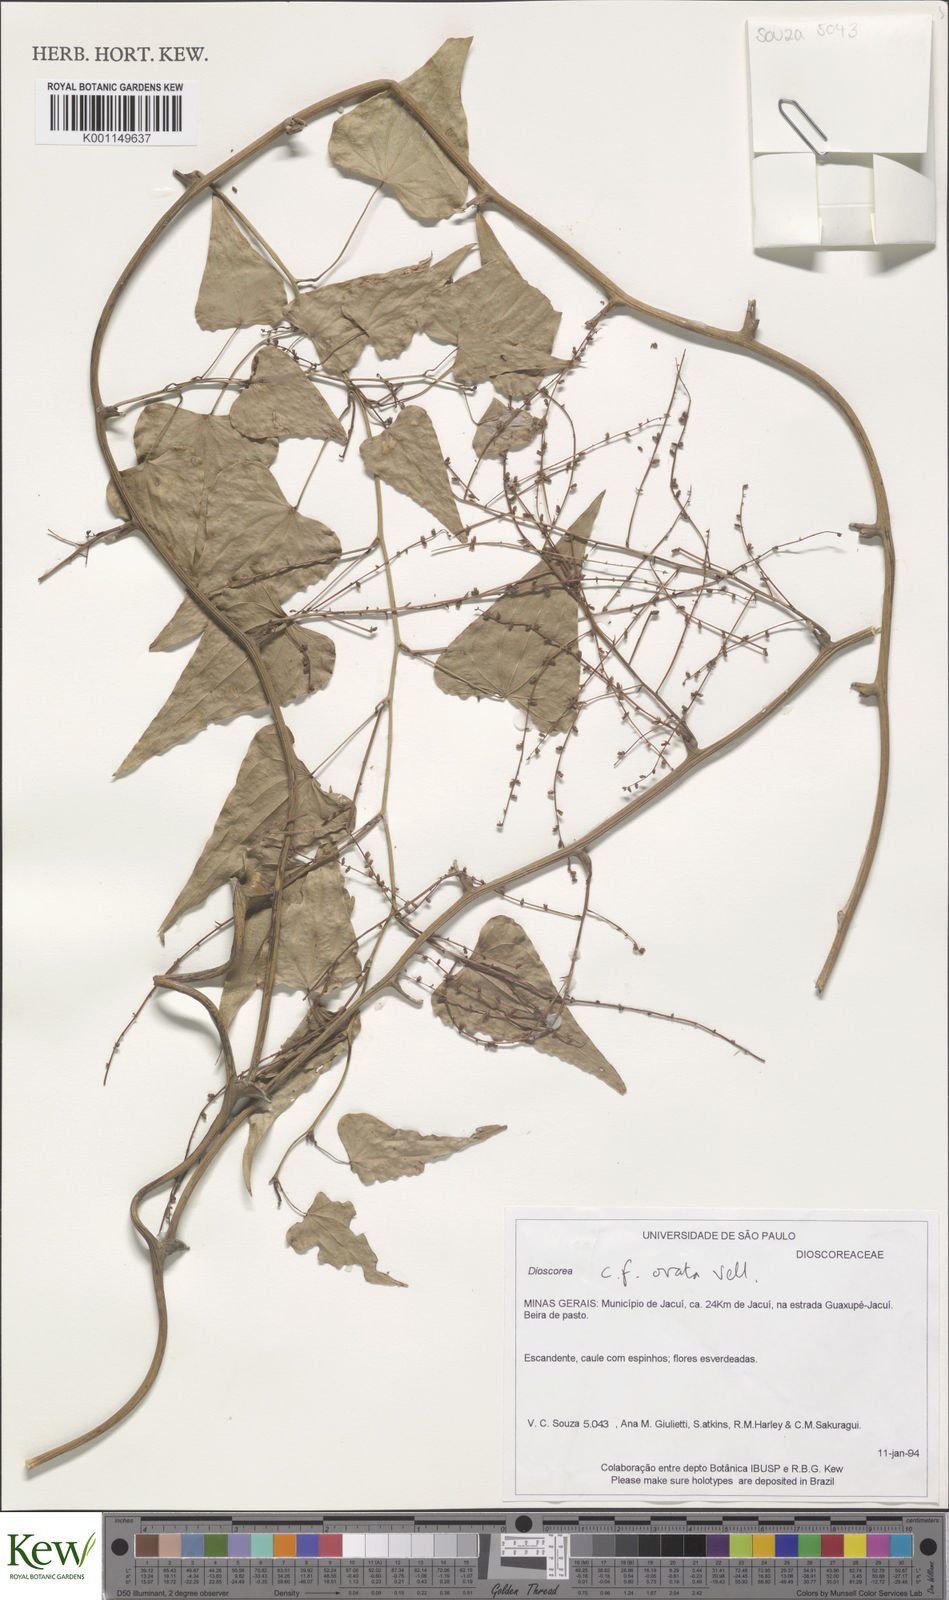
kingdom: Plantae
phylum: Tracheophyta
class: Liliopsida
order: Dioscoreales
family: Dioscoreaceae
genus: Dioscorea
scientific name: Dioscorea ovata
